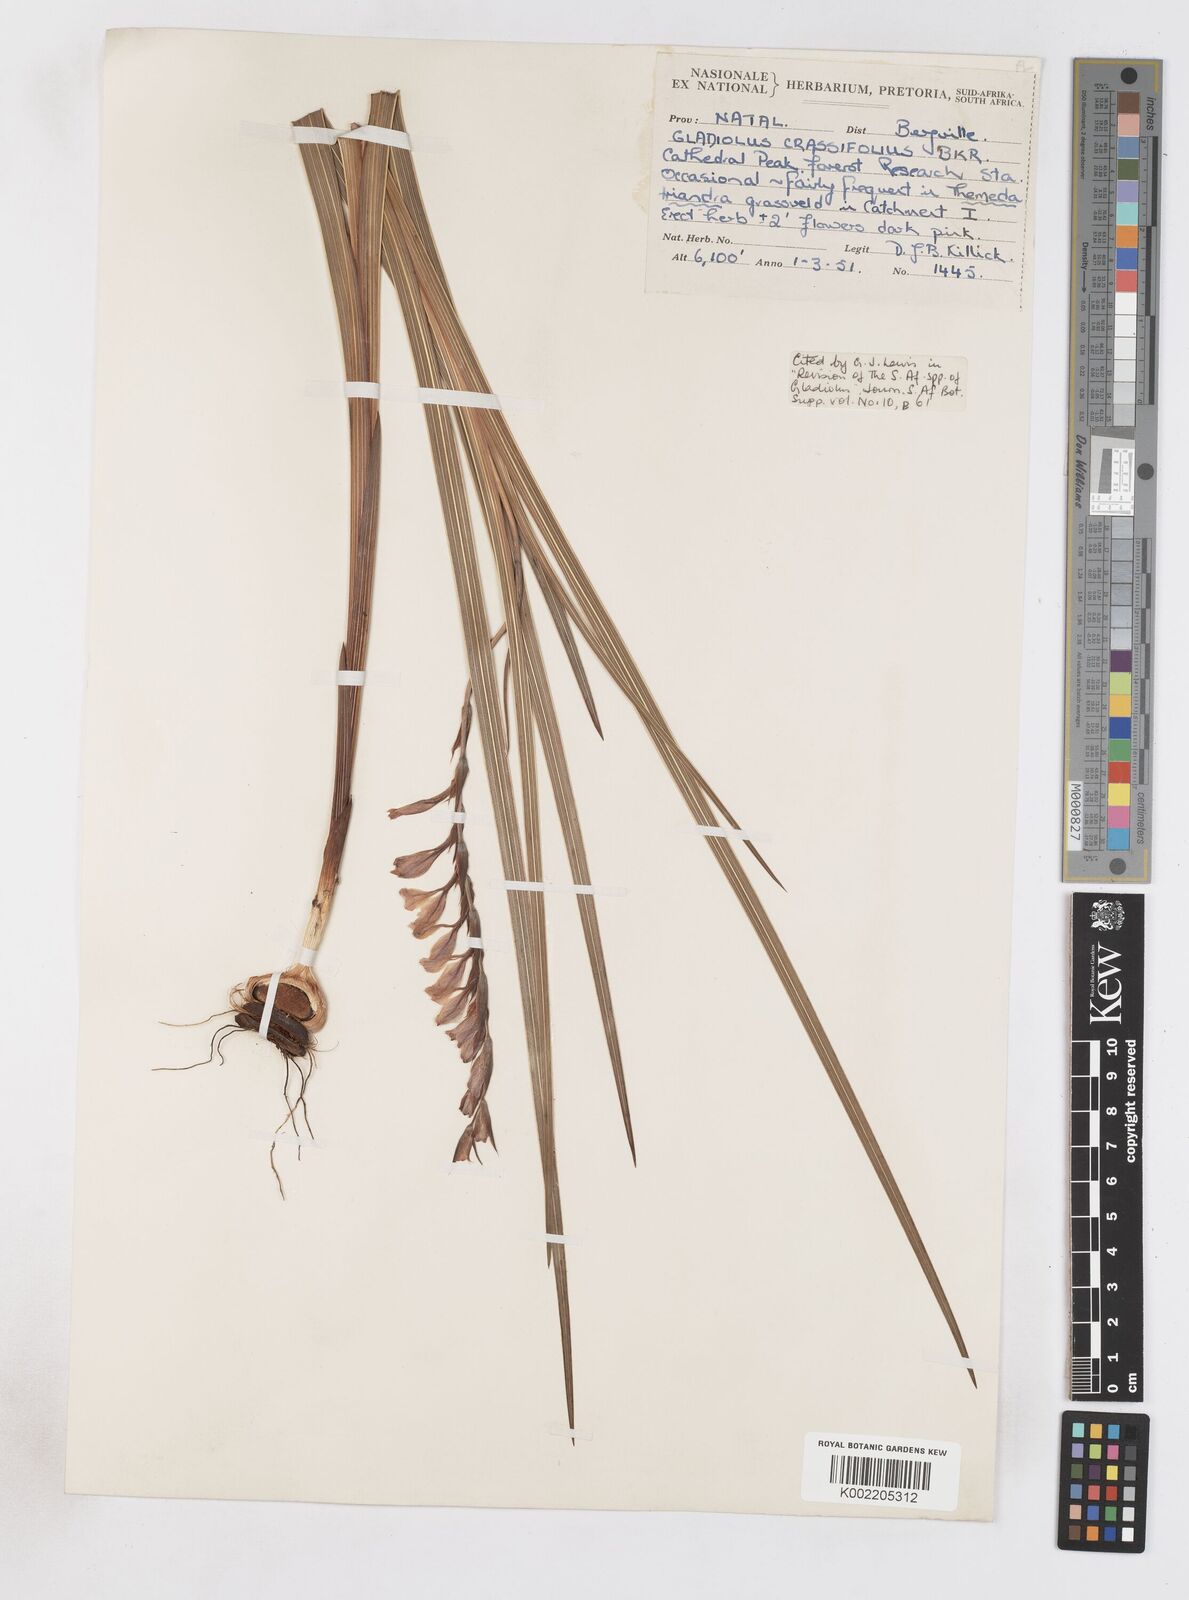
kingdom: Plantae
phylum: Tracheophyta
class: Liliopsida
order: Asparagales
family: Iridaceae
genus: Gladiolus
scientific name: Gladiolus crassifolius
